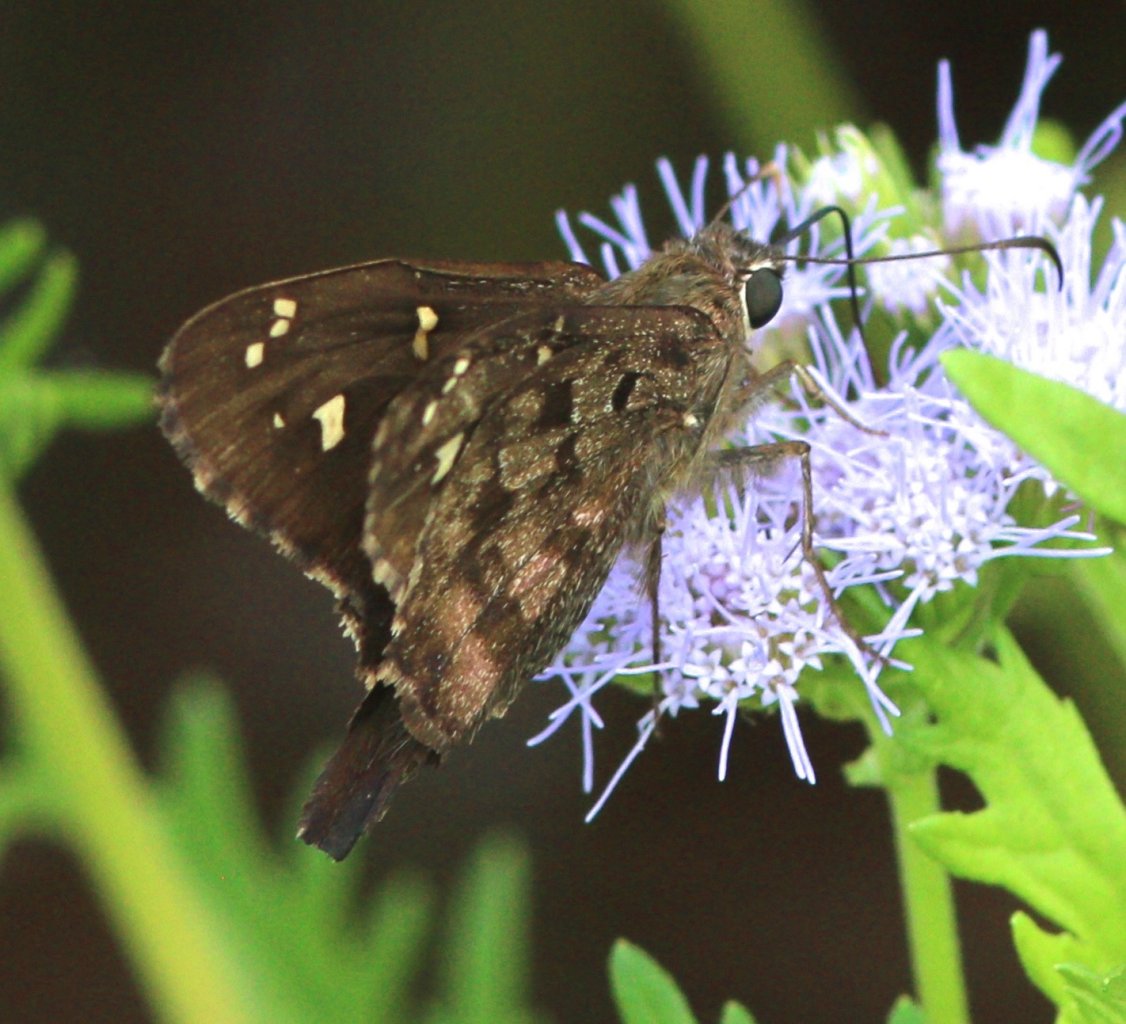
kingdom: Animalia
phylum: Arthropoda
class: Insecta
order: Lepidoptera
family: Hesperiidae
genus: Urbanus
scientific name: Urbanus dorantes
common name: Dorantes Longtail
